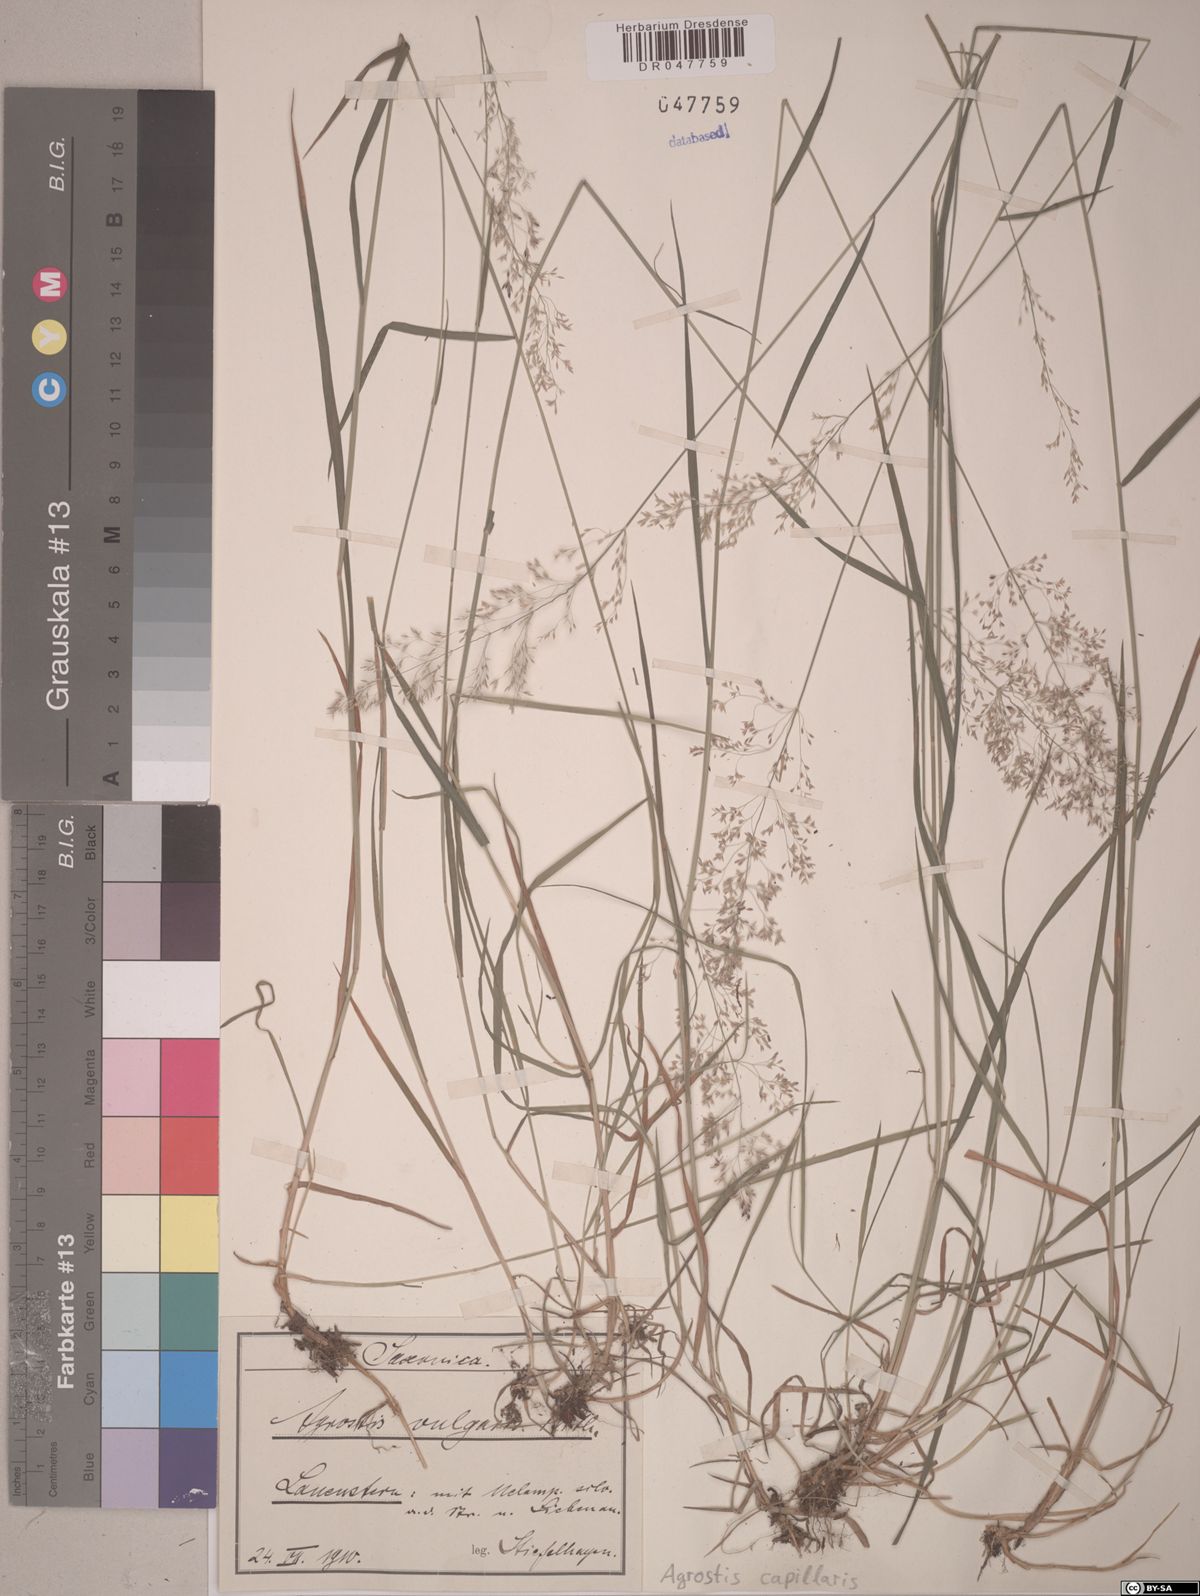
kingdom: Plantae
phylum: Tracheophyta
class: Liliopsida
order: Poales
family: Poaceae
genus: Agrostis
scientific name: Agrostis capillaris
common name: Colonial bentgrass
